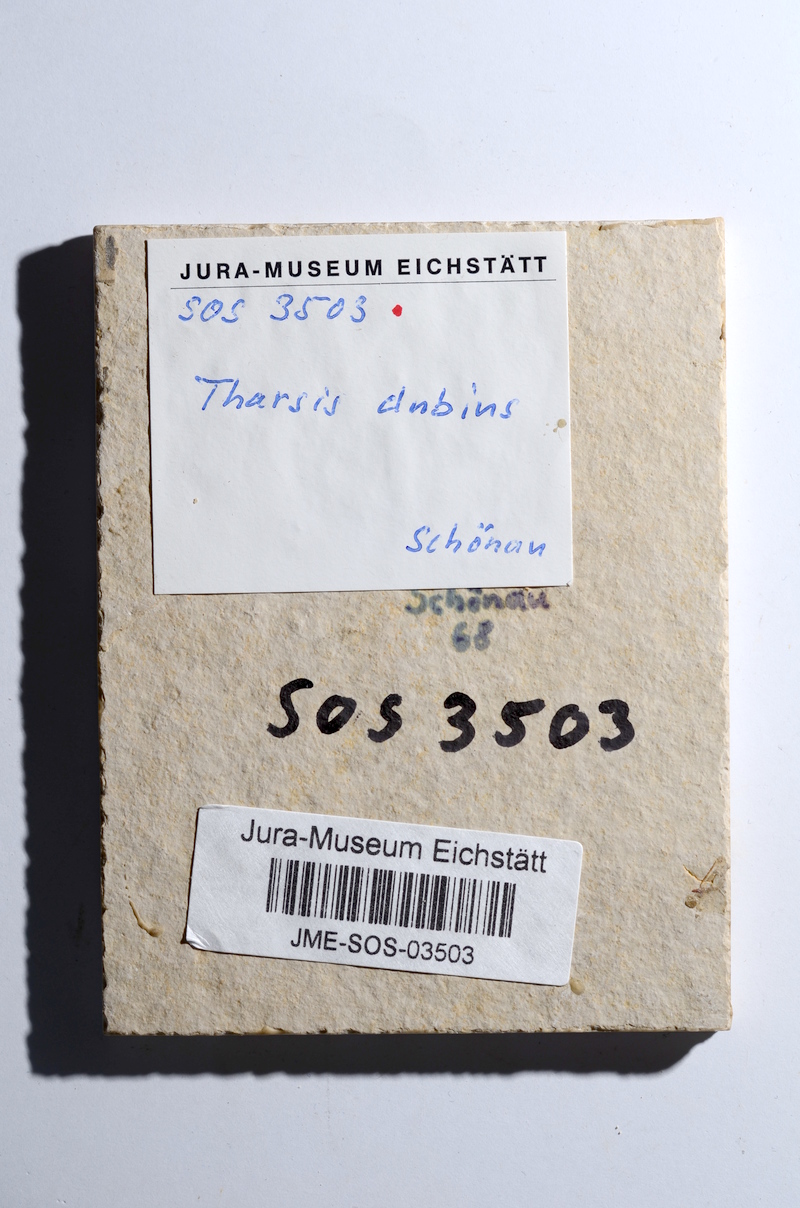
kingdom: Animalia
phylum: Chordata
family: Ascalaboidae
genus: Tharsis
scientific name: Tharsis dubius
